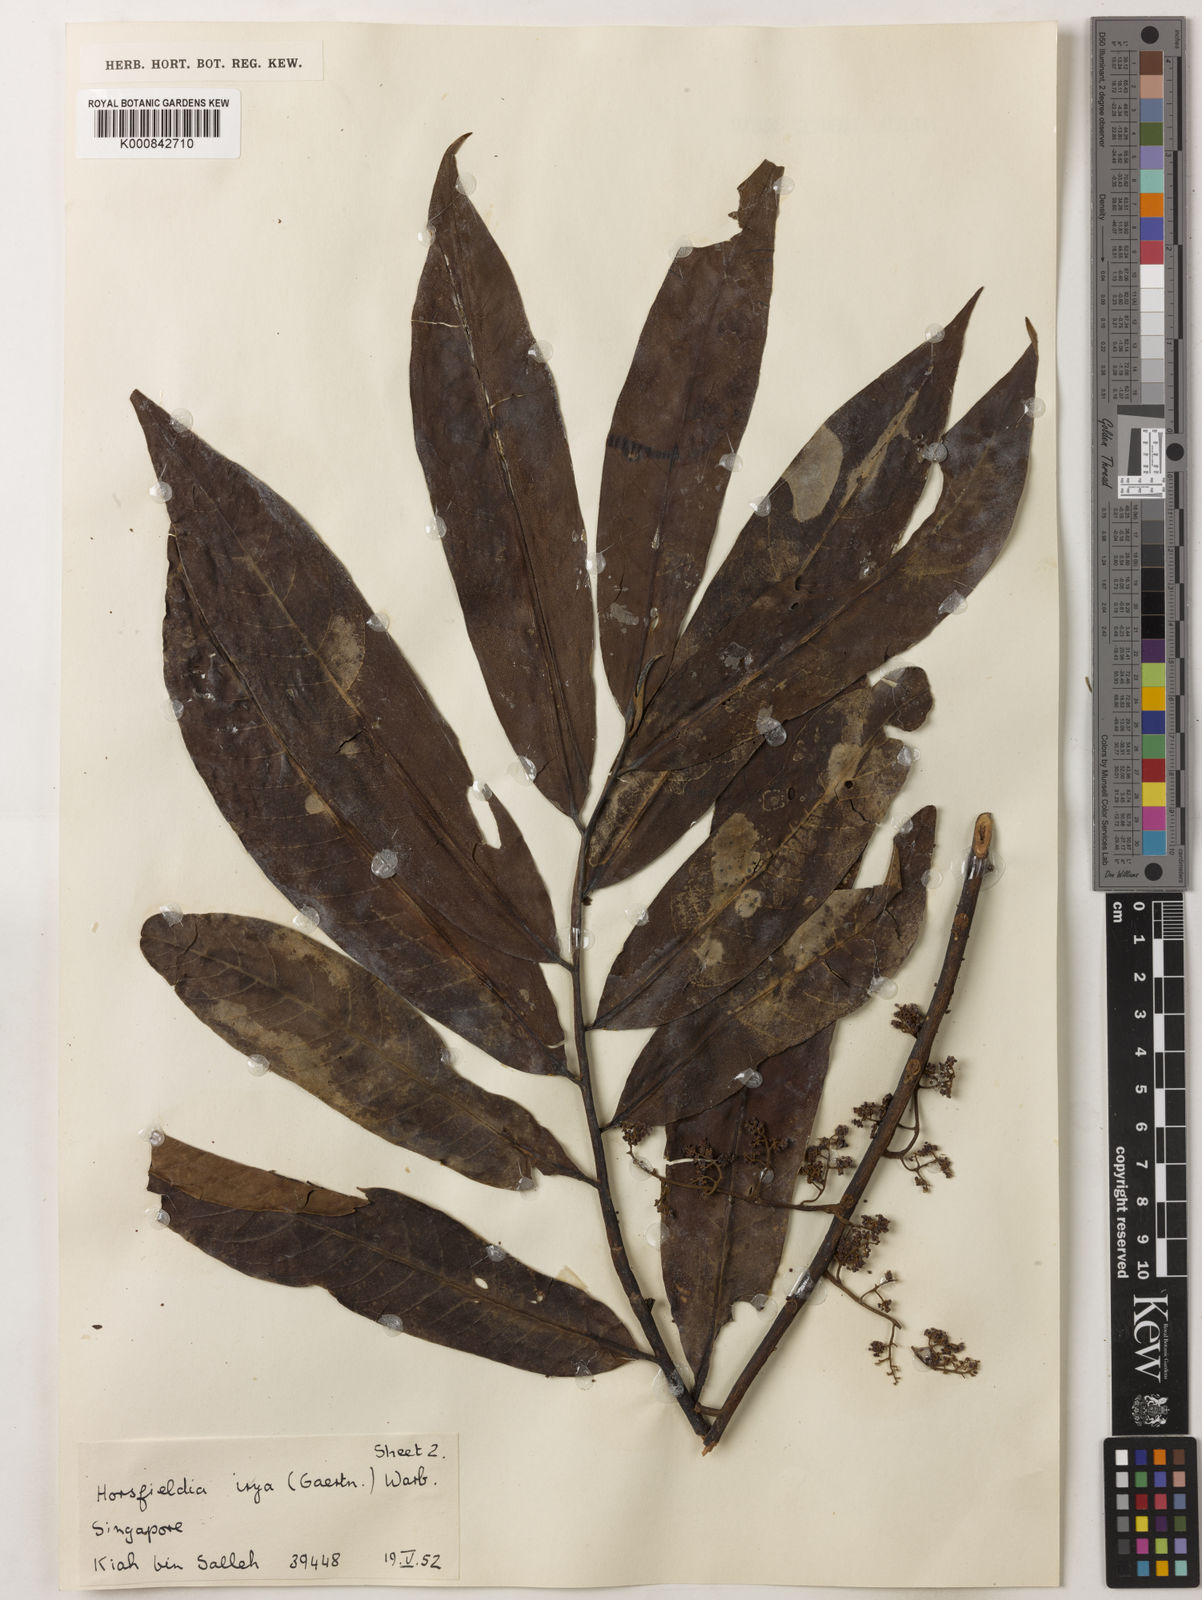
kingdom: Plantae
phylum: Tracheophyta
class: Magnoliopsida
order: Magnoliales
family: Myristicaceae
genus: Horsfieldia
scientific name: Horsfieldia irya
